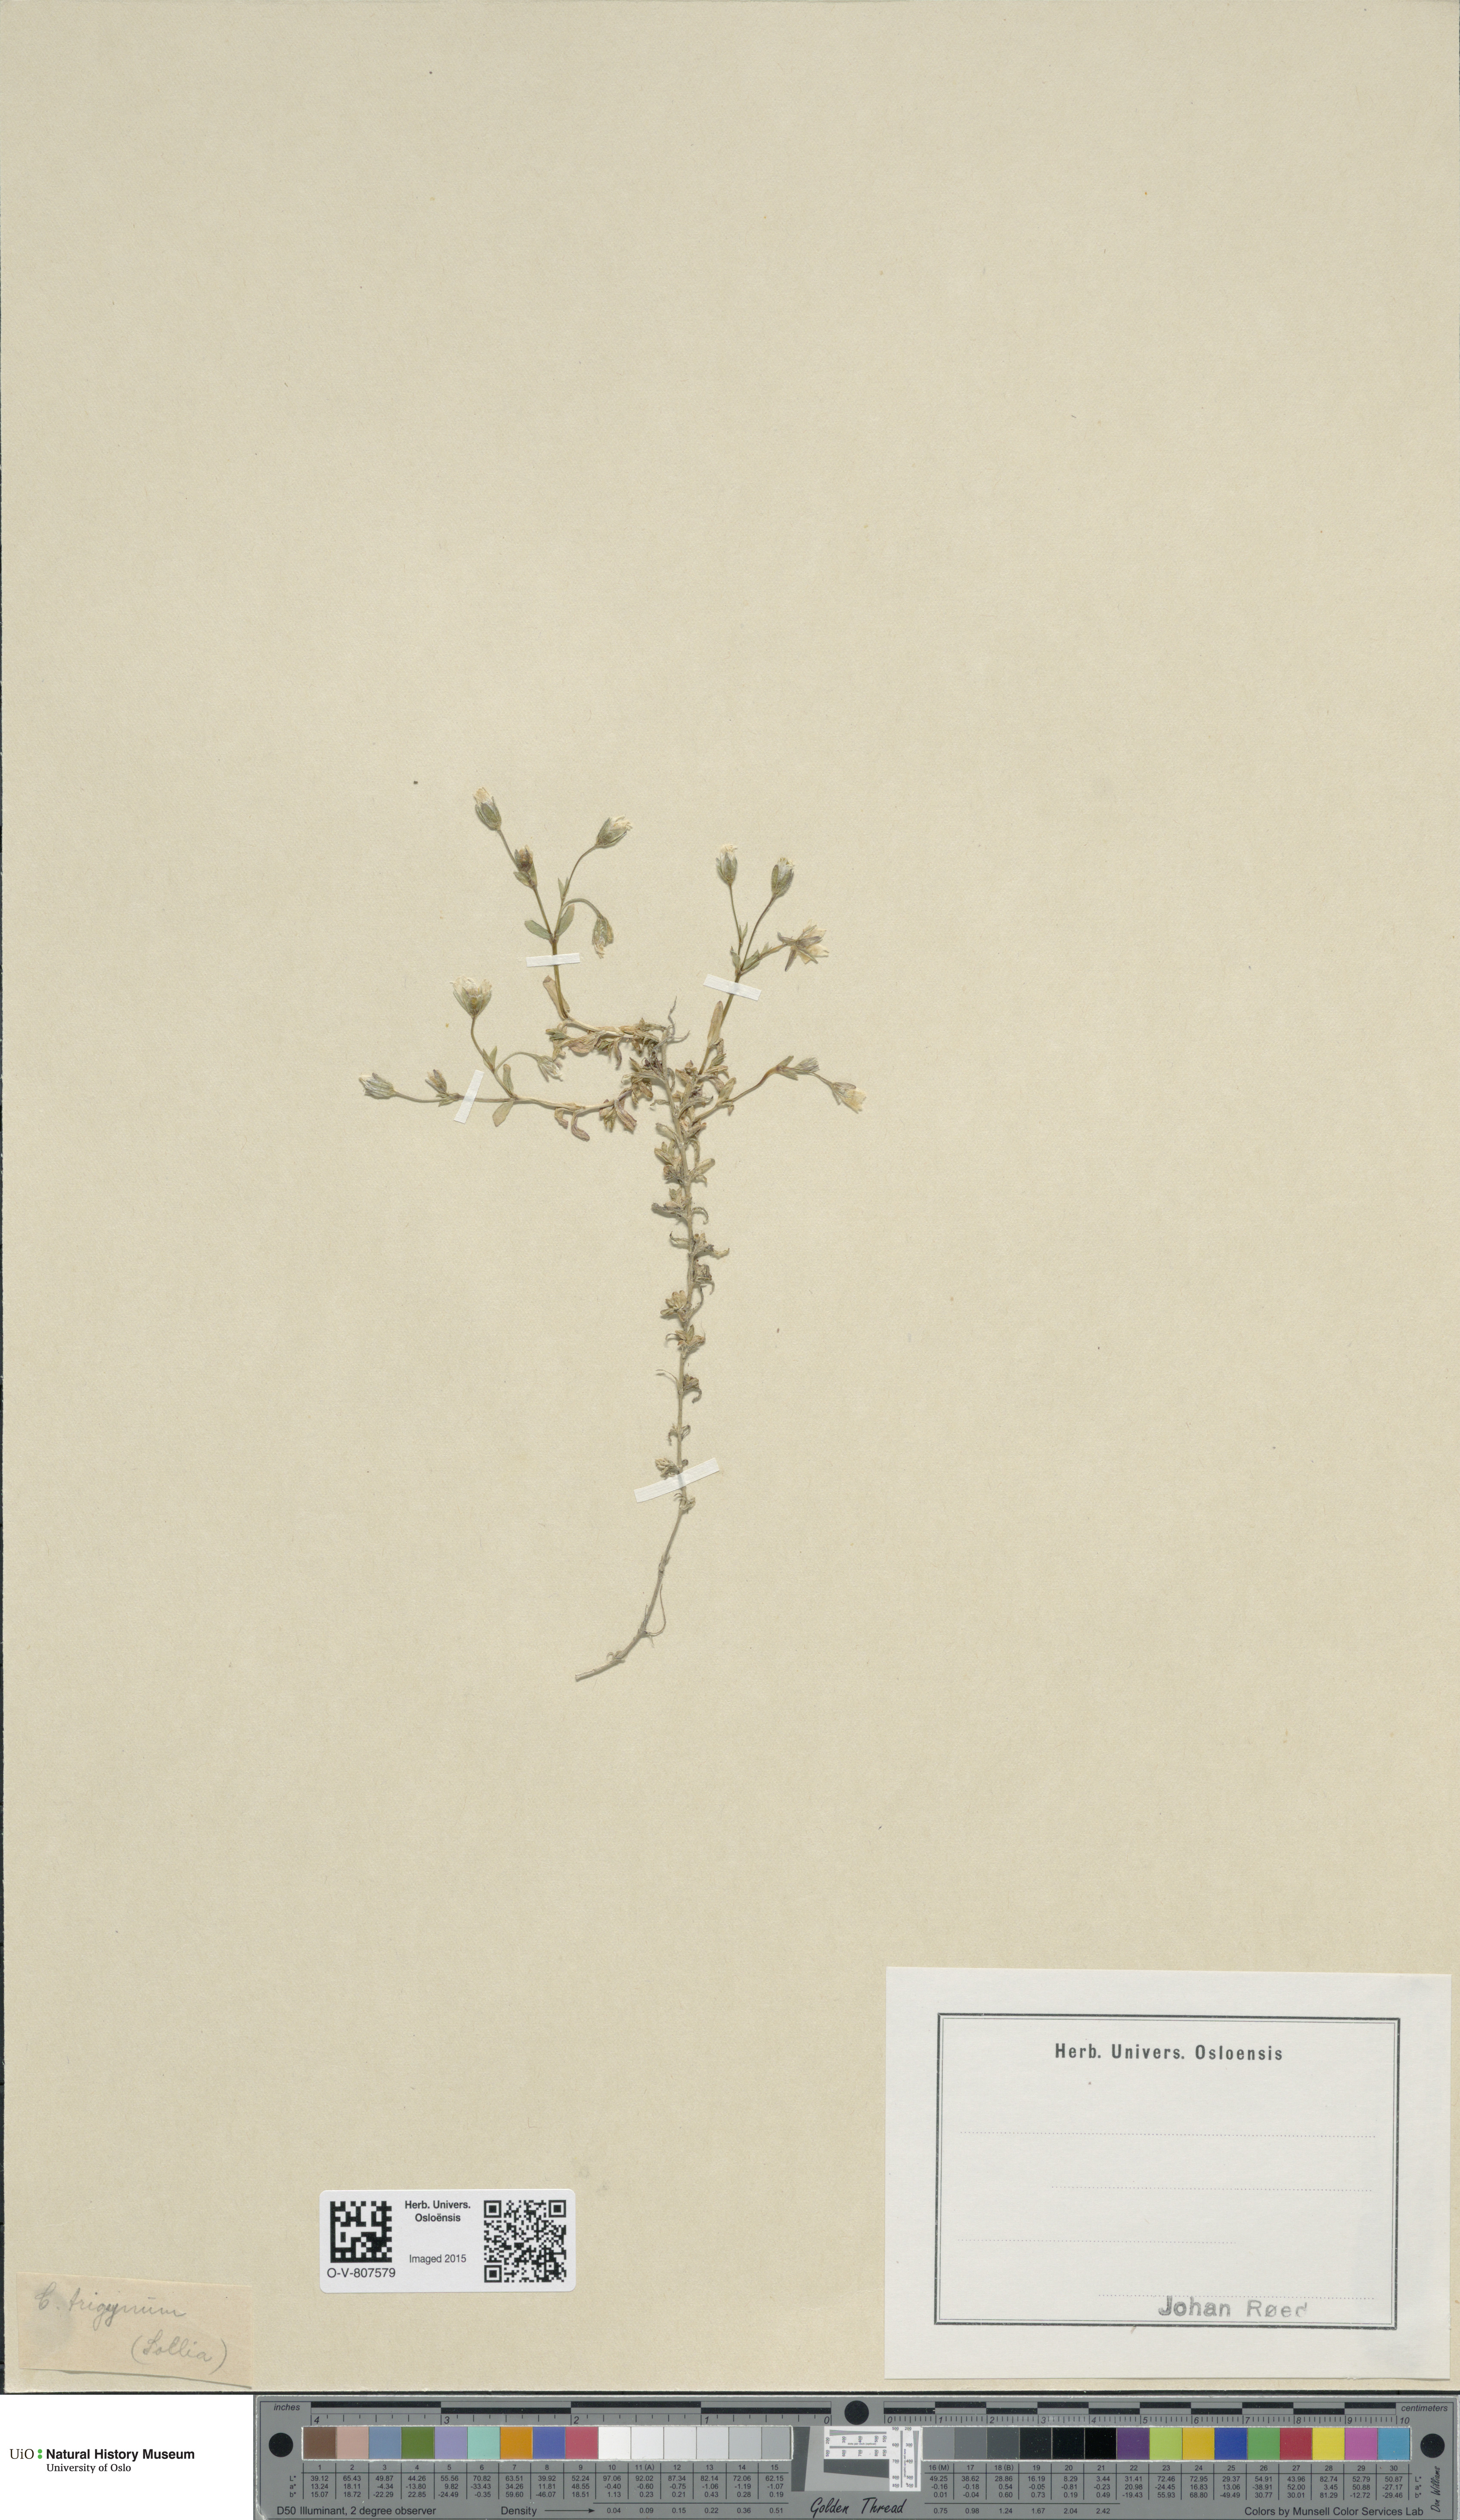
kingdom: Plantae
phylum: Tracheophyta
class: Magnoliopsida
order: Caryophyllales
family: Caryophyllaceae
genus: Dichodon
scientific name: Dichodon cerastoides
